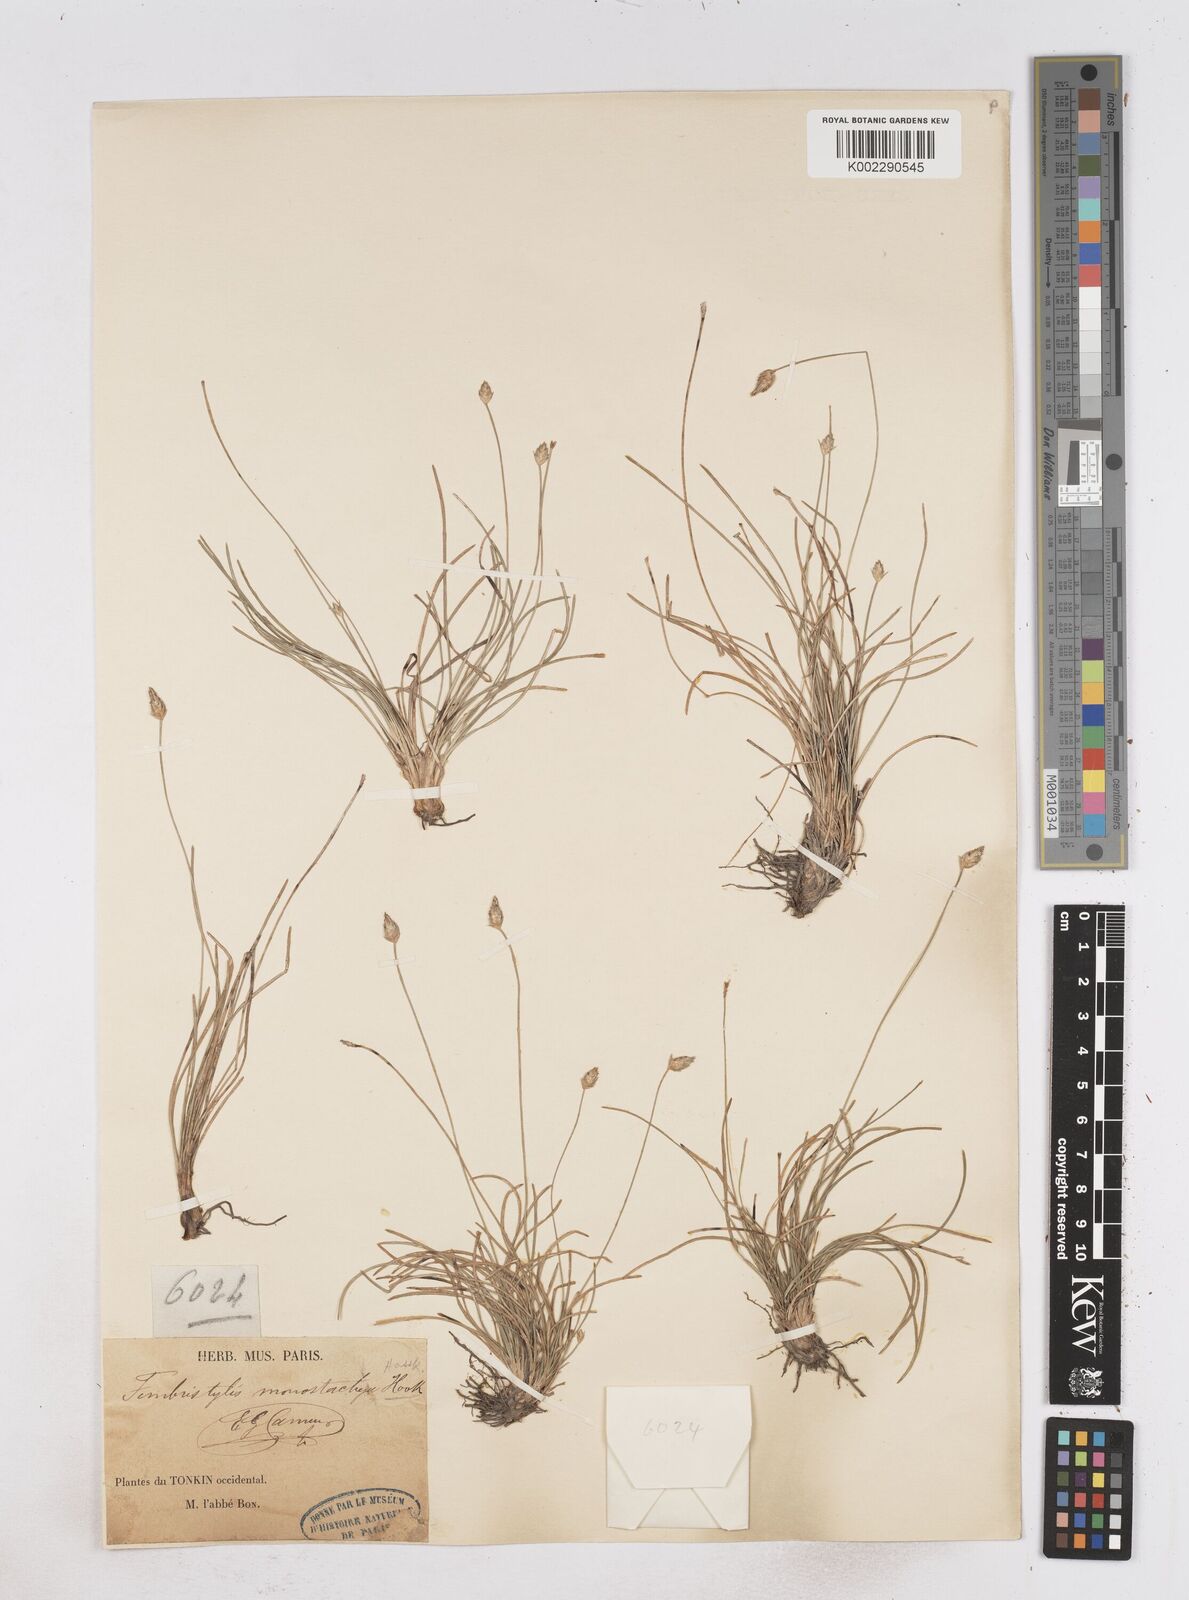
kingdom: Plantae
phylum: Tracheophyta
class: Liliopsida
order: Poales
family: Cyperaceae
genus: Abildgaardia
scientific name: Abildgaardia ovata
